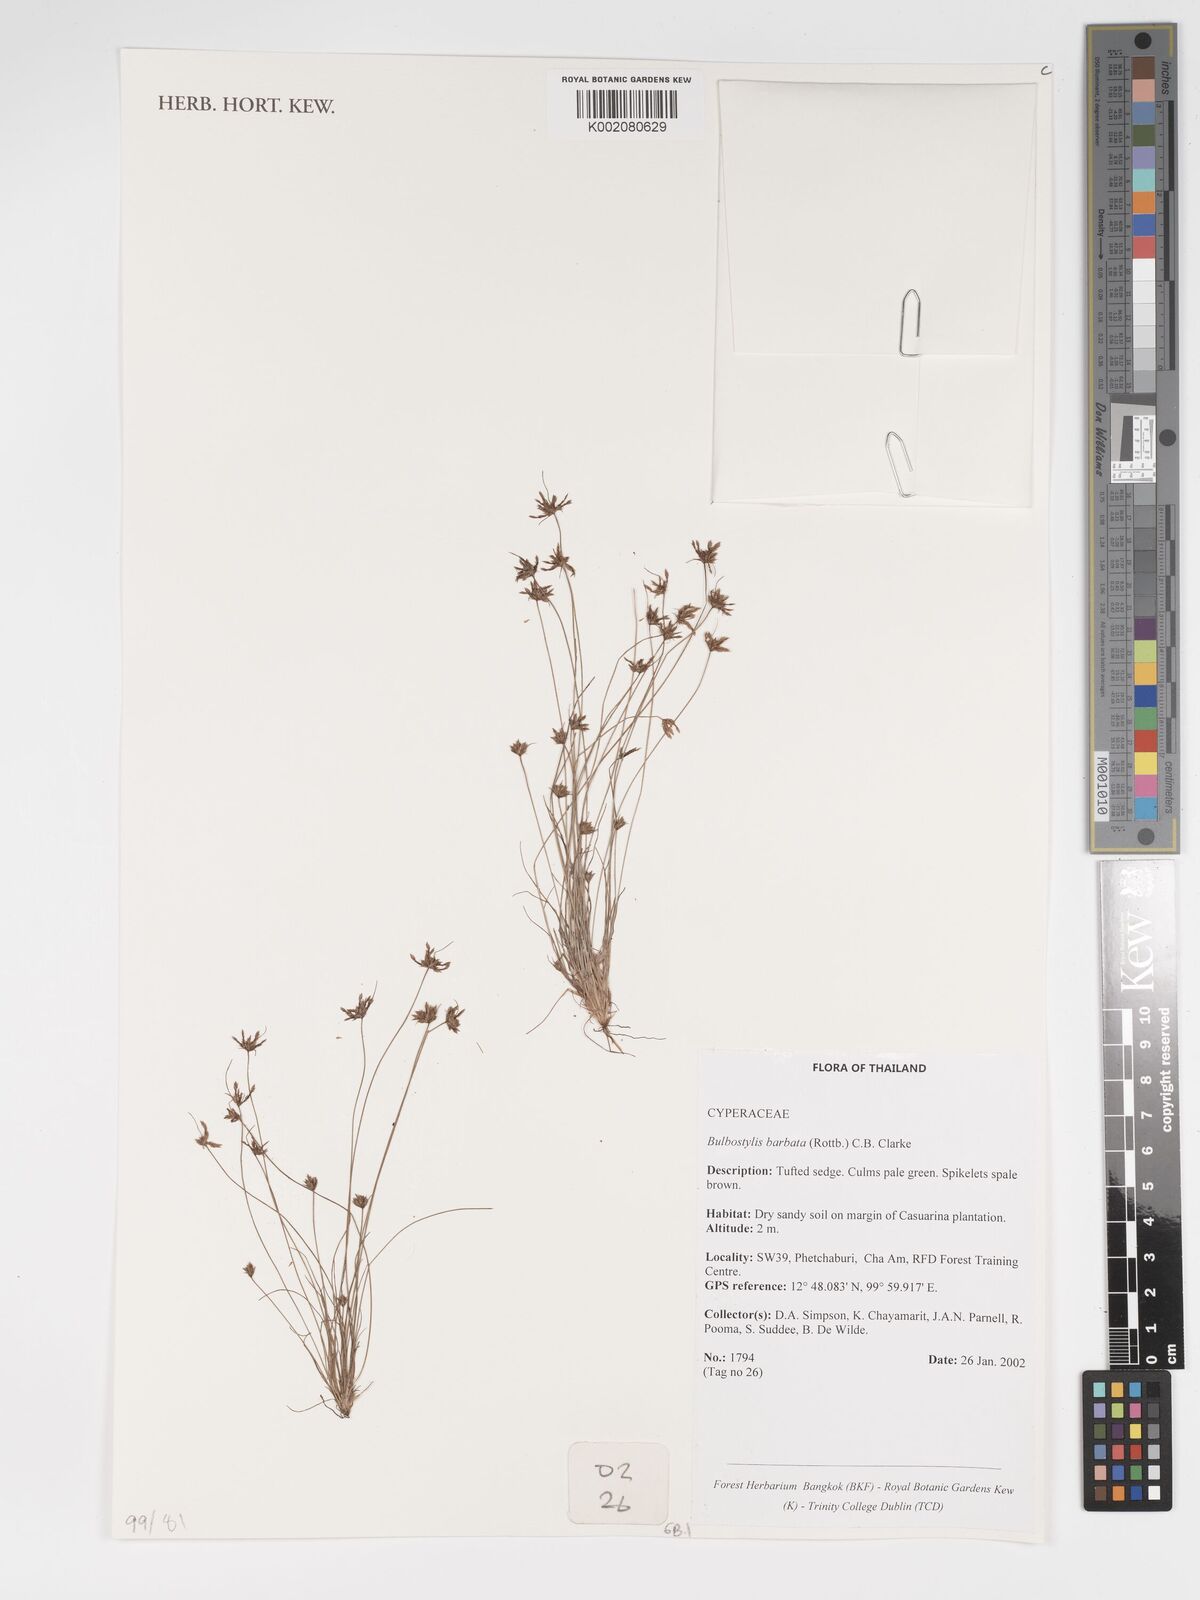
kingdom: Plantae
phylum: Tracheophyta
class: Liliopsida
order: Poales
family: Cyperaceae
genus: Bulbostylis
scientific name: Bulbostylis barbata
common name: Watergrass
